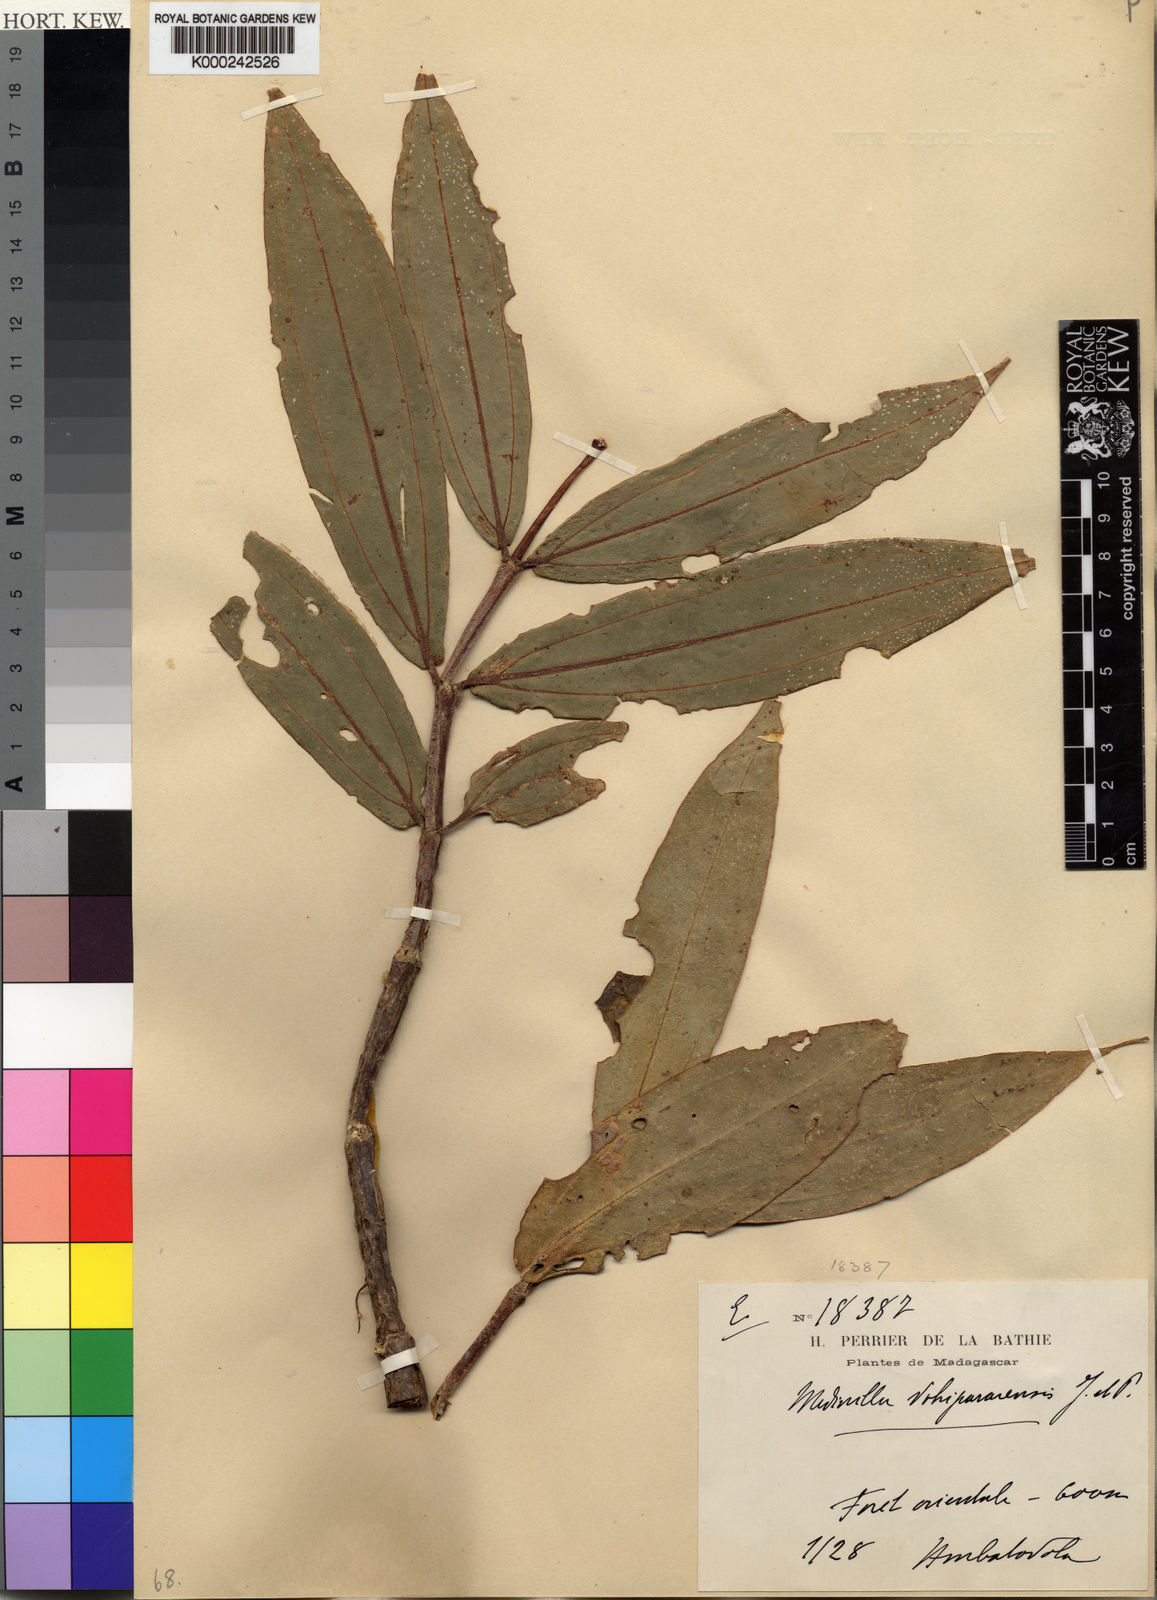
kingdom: Plantae
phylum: Tracheophyta
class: Magnoliopsida
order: Myrtales
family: Melastomataceae
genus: Medinilla
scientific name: Medinilla vohipararensis
